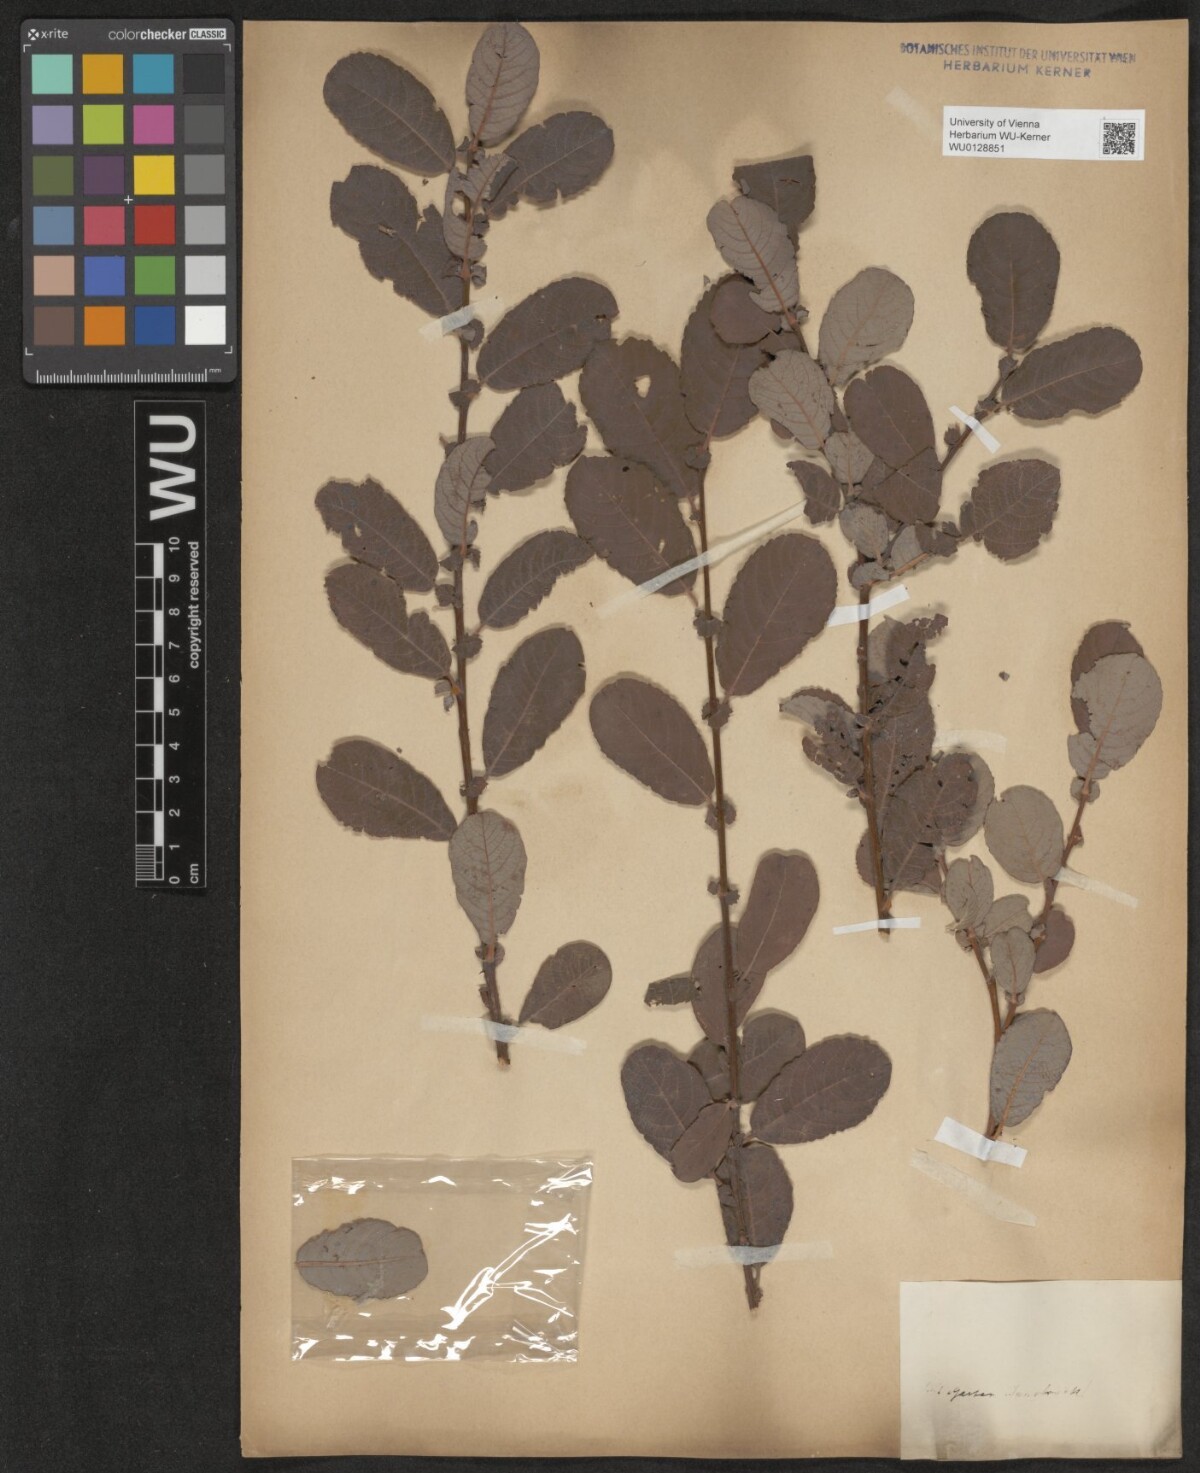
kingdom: Plantae
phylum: Tracheophyta
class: Magnoliopsida
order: Malpighiales
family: Salicaceae
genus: Salix
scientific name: Salix aurita
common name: Eared willow
